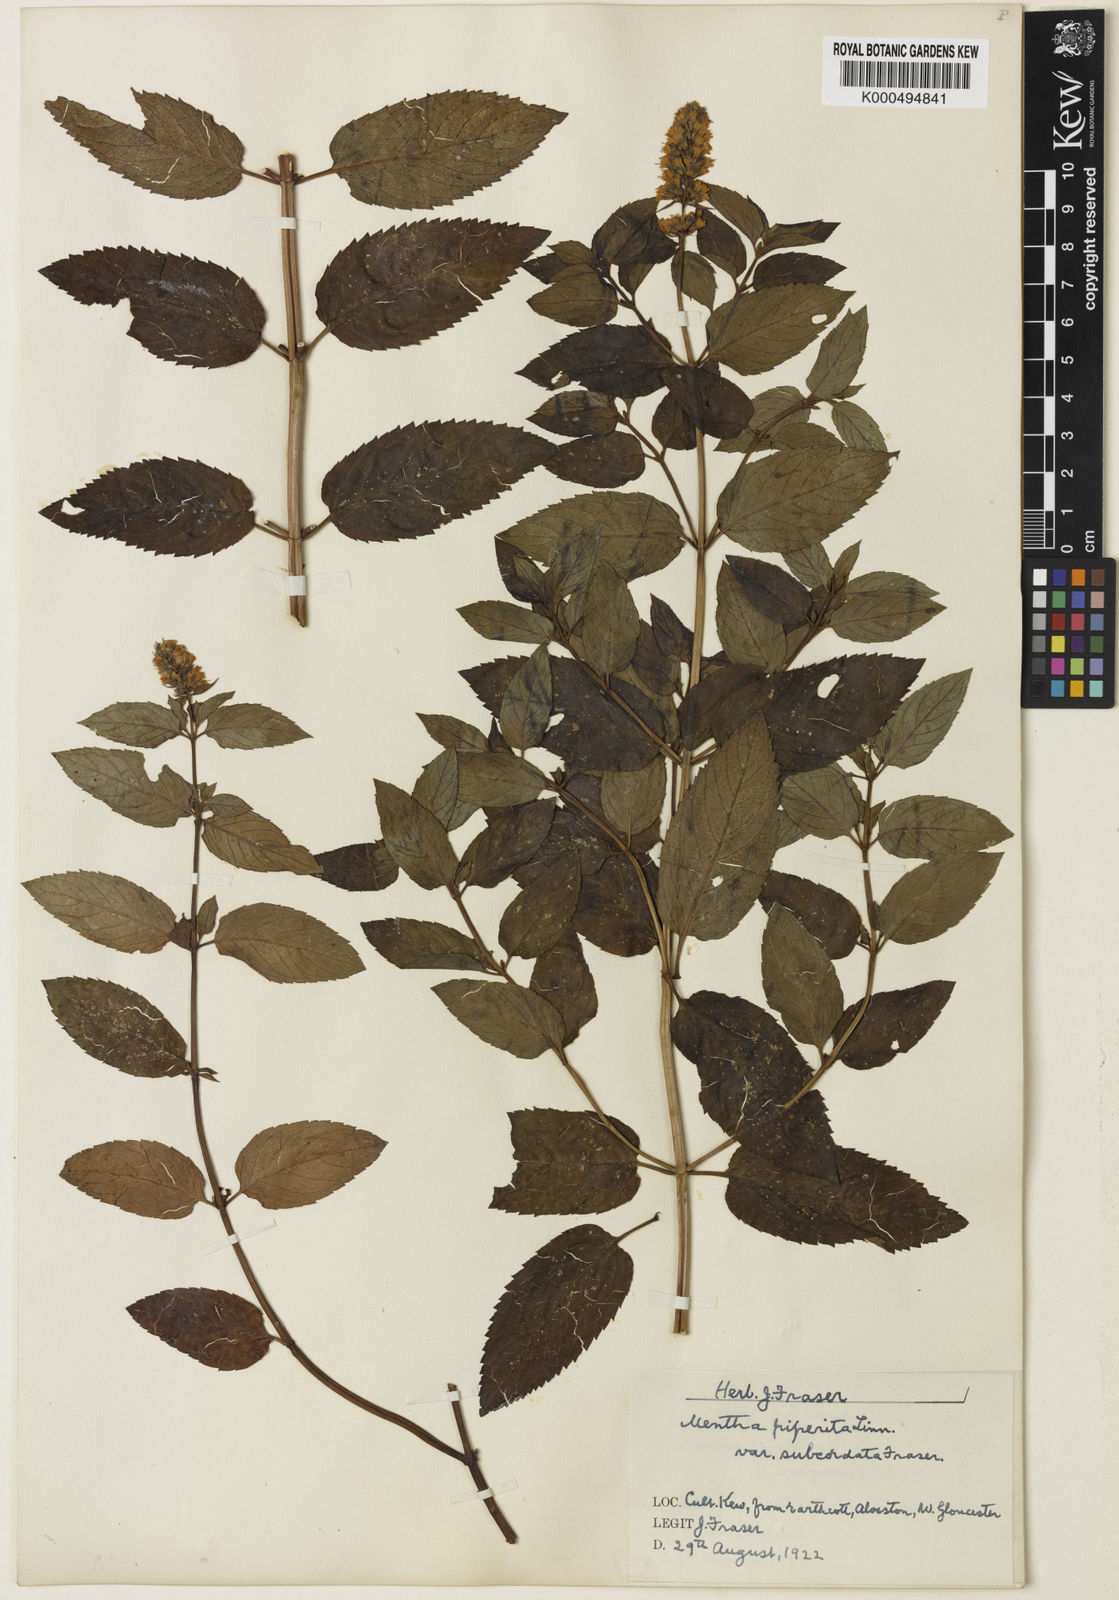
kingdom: Plantae
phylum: Tracheophyta
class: Magnoliopsida
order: Lamiales
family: Lamiaceae
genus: Mentha
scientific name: Mentha piperita
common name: Peppermint
